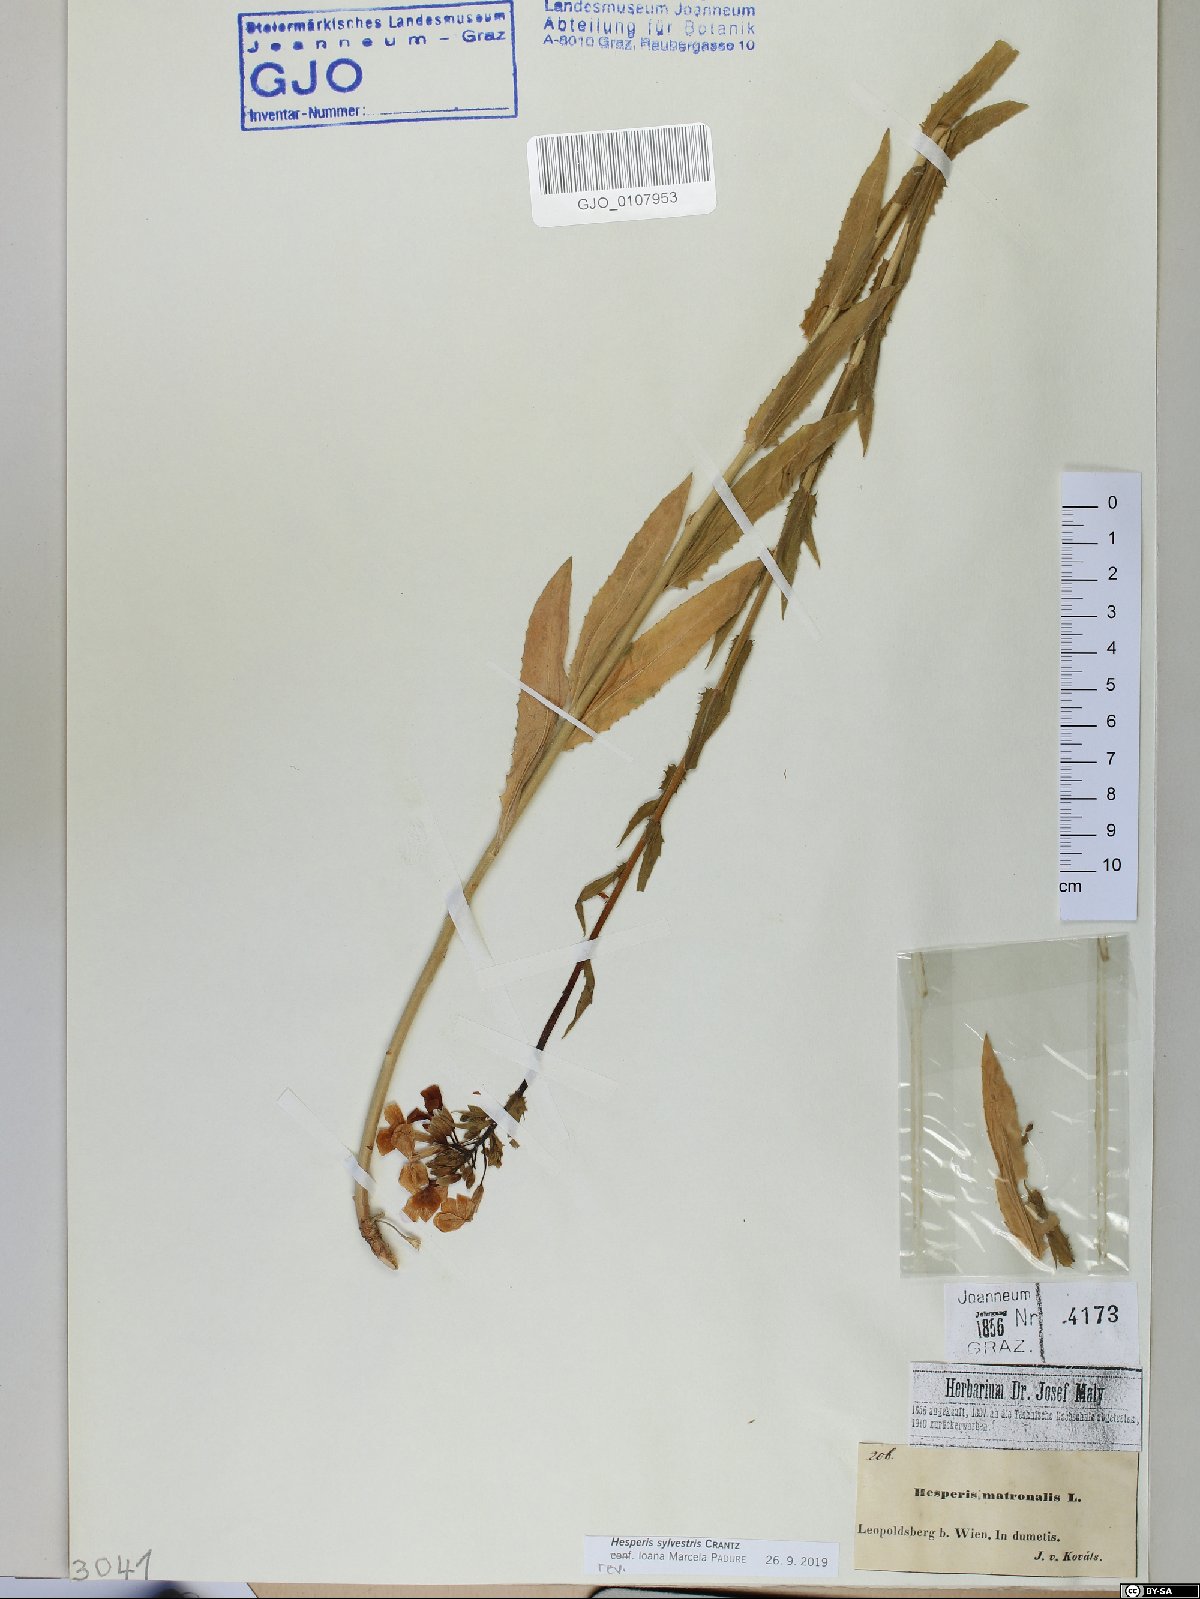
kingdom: Plantae
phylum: Tracheophyta
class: Magnoliopsida
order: Brassicales
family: Brassicaceae
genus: Hesperis
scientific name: Hesperis sylvestris
